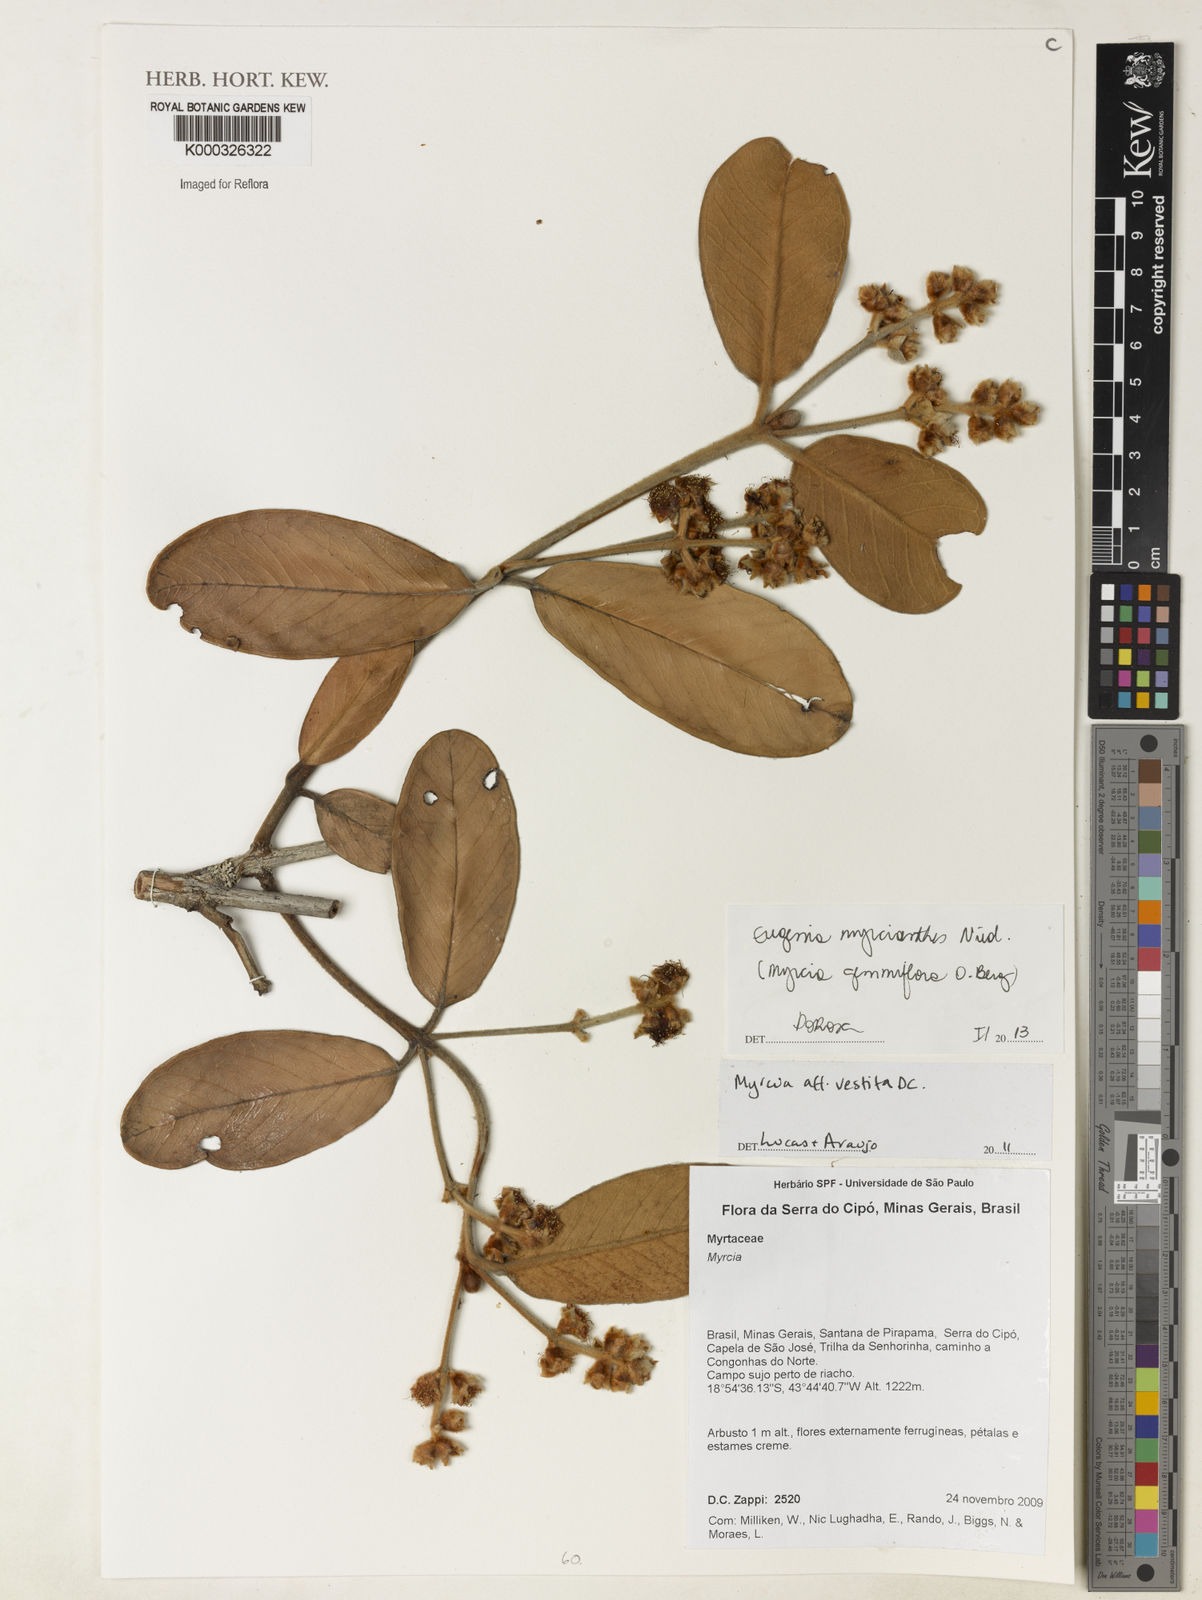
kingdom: Plantae
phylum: Tracheophyta
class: Magnoliopsida
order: Myrtales
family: Myrtaceae
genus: Eugenia
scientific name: Eugenia myrcianthes
